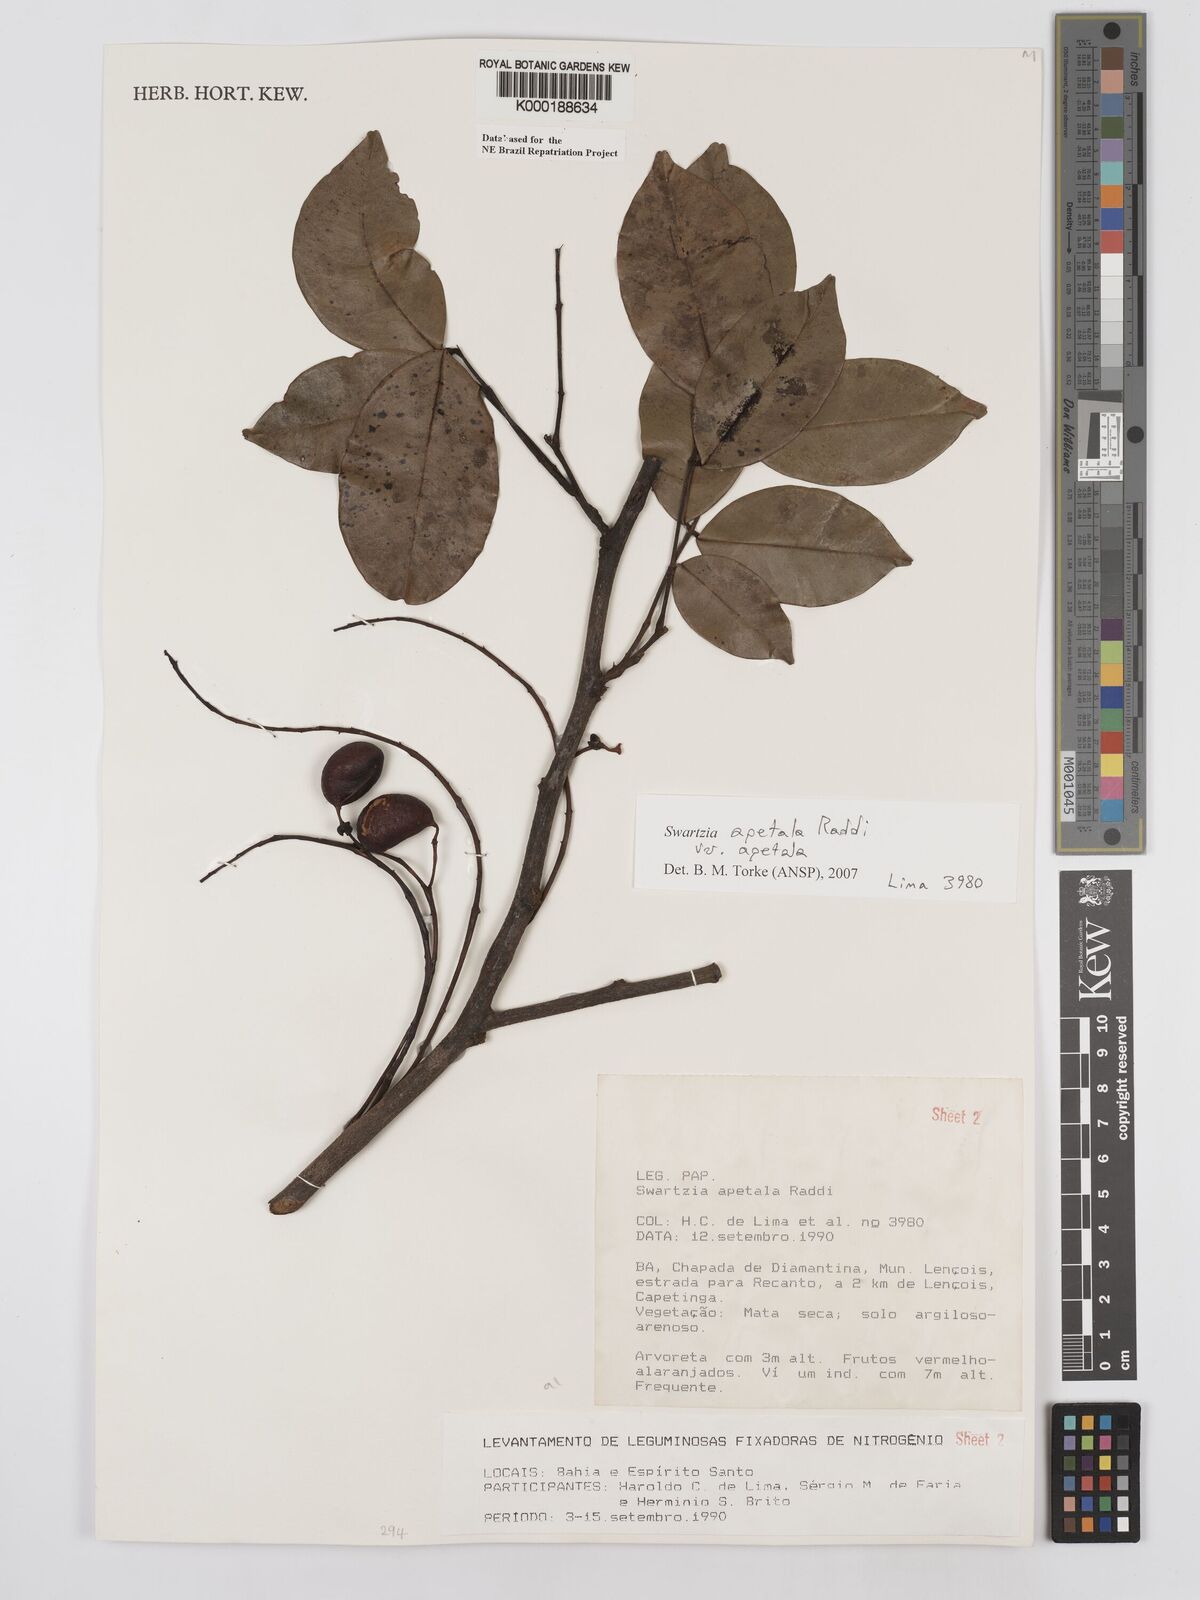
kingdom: Plantae
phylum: Tracheophyta
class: Magnoliopsida
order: Fabales
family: Fabaceae
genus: Swartzia
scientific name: Swartzia apetala
